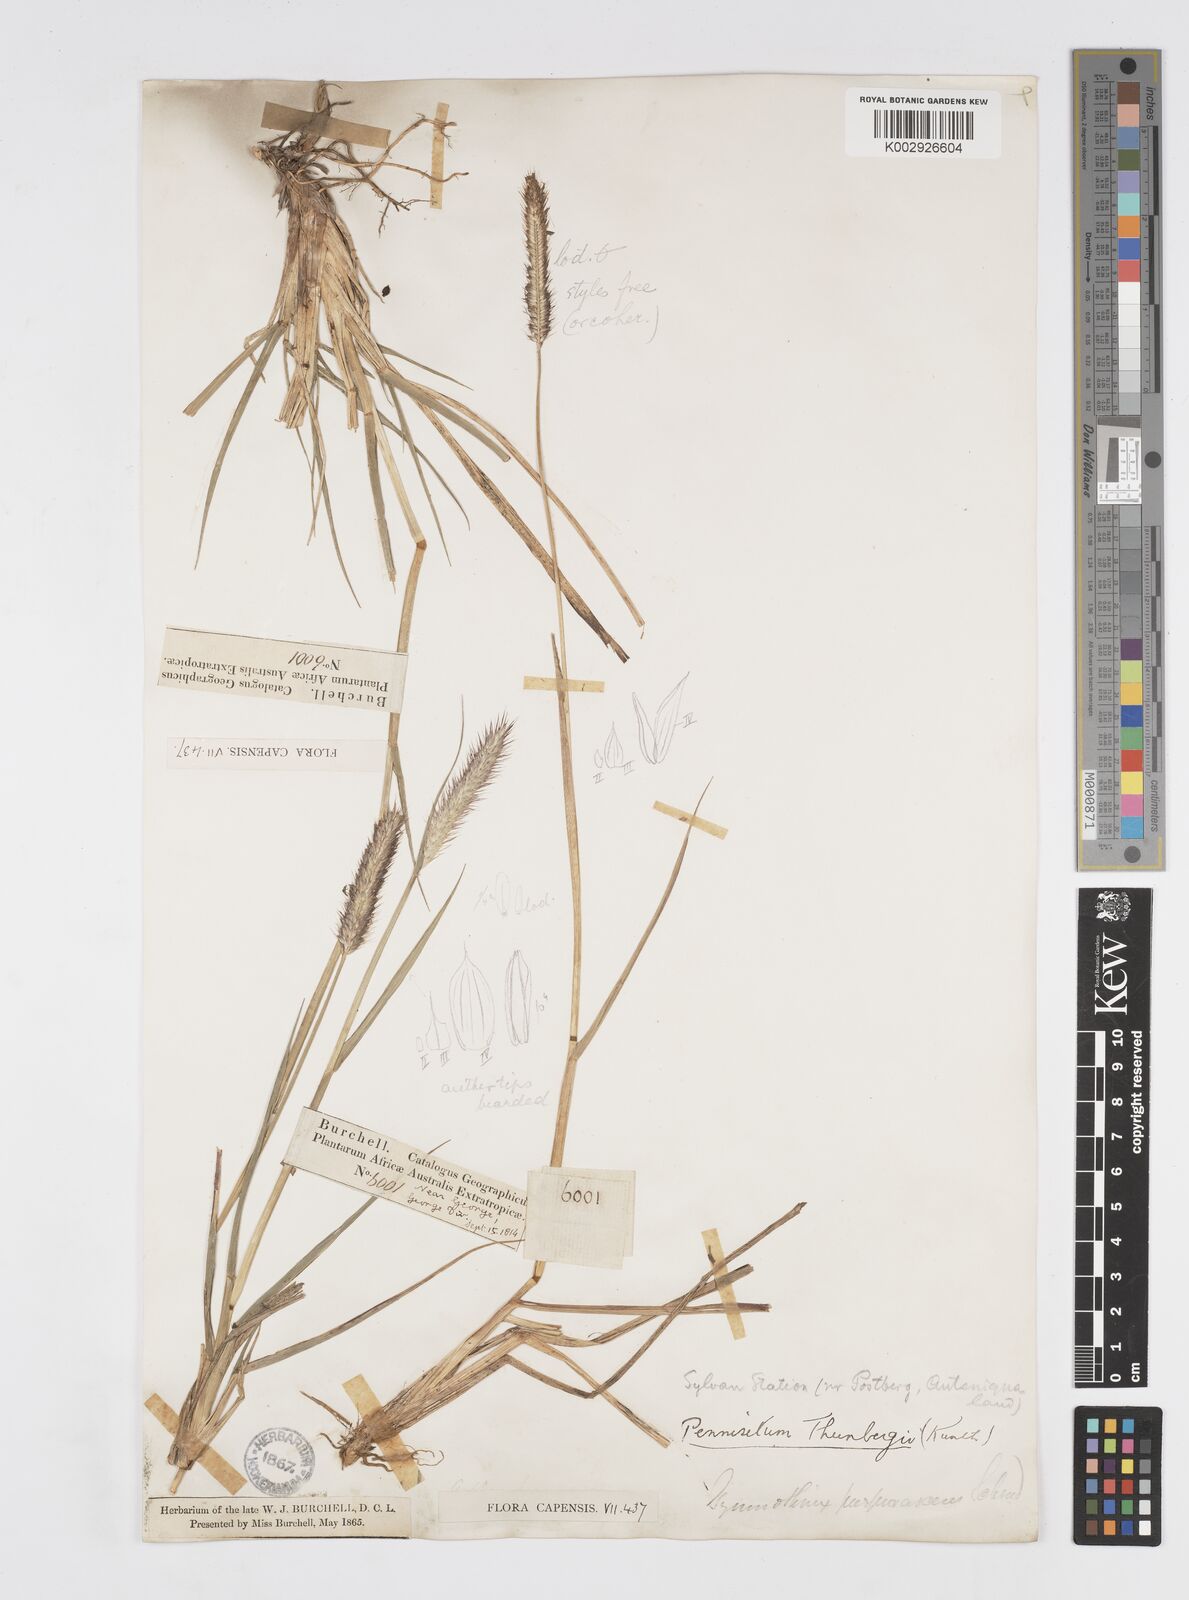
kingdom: Plantae
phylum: Tracheophyta
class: Liliopsida
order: Poales
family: Poaceae
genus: Cenchrus
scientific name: Cenchrus geniculatus
